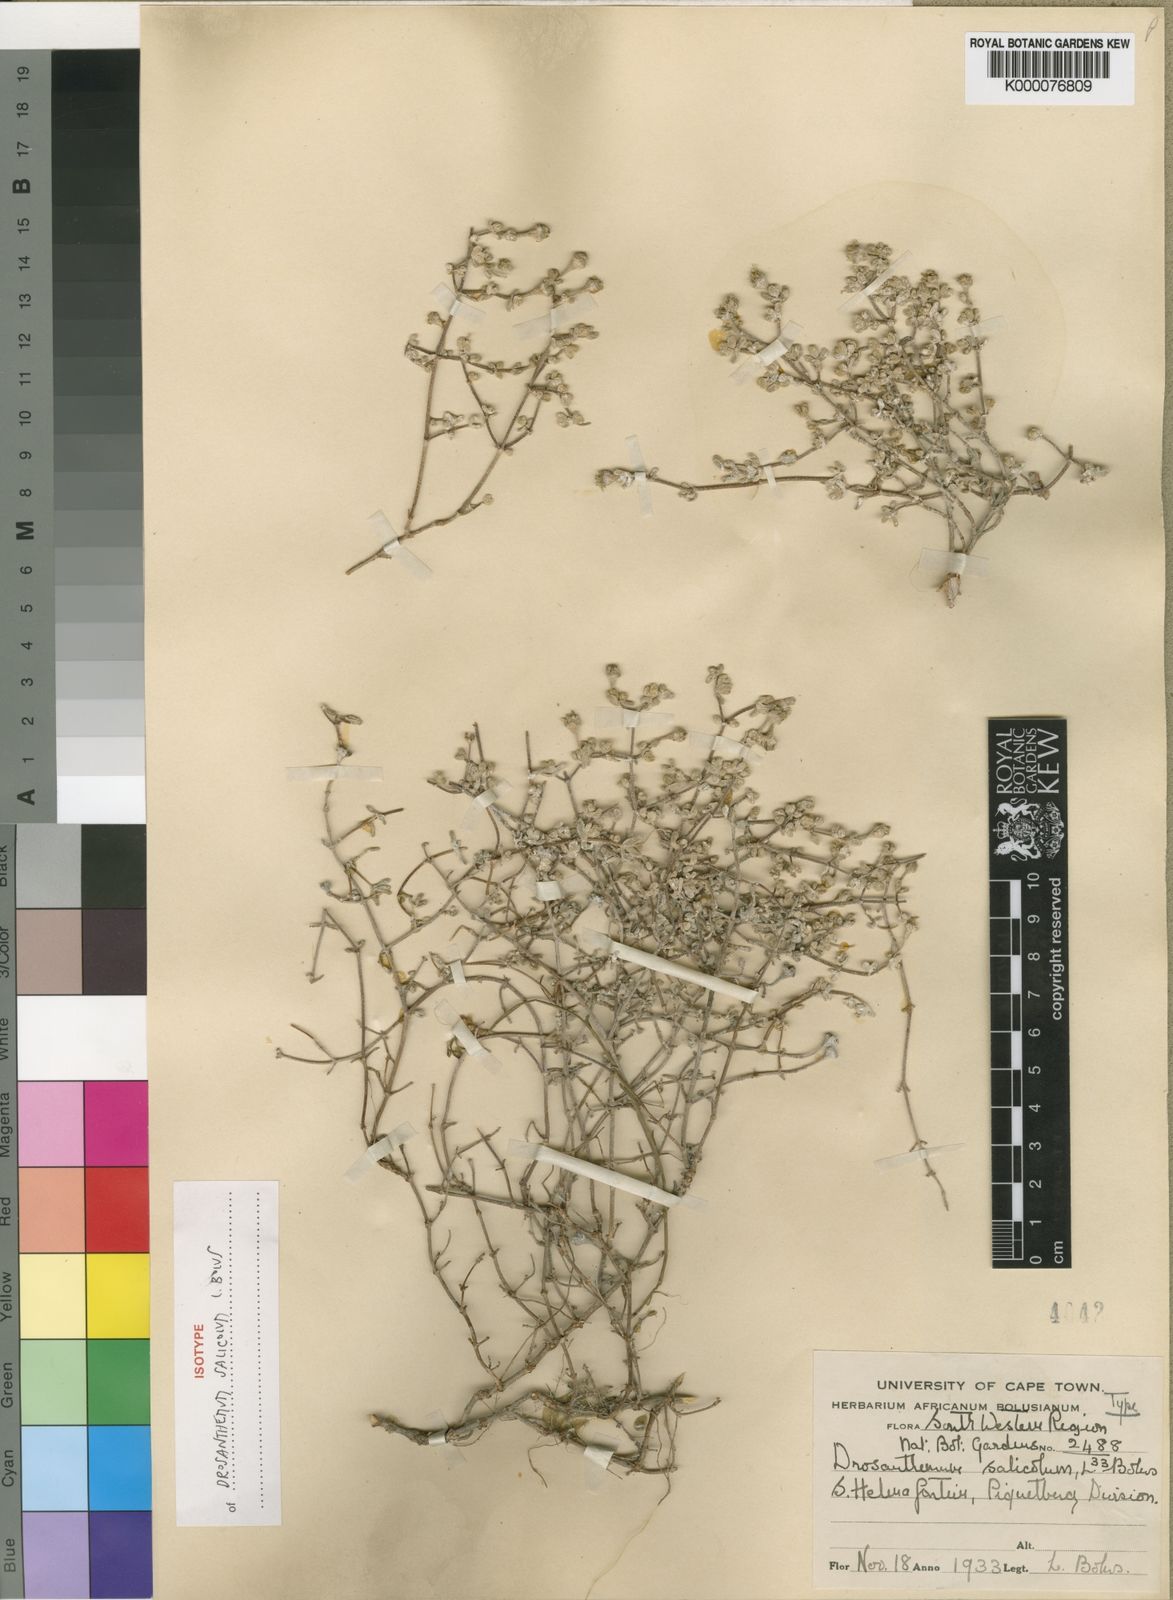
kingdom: Plantae
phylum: Tracheophyta
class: Magnoliopsida
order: Caryophyllales
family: Aizoaceae
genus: Drosanthemum
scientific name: Drosanthemum salicola
